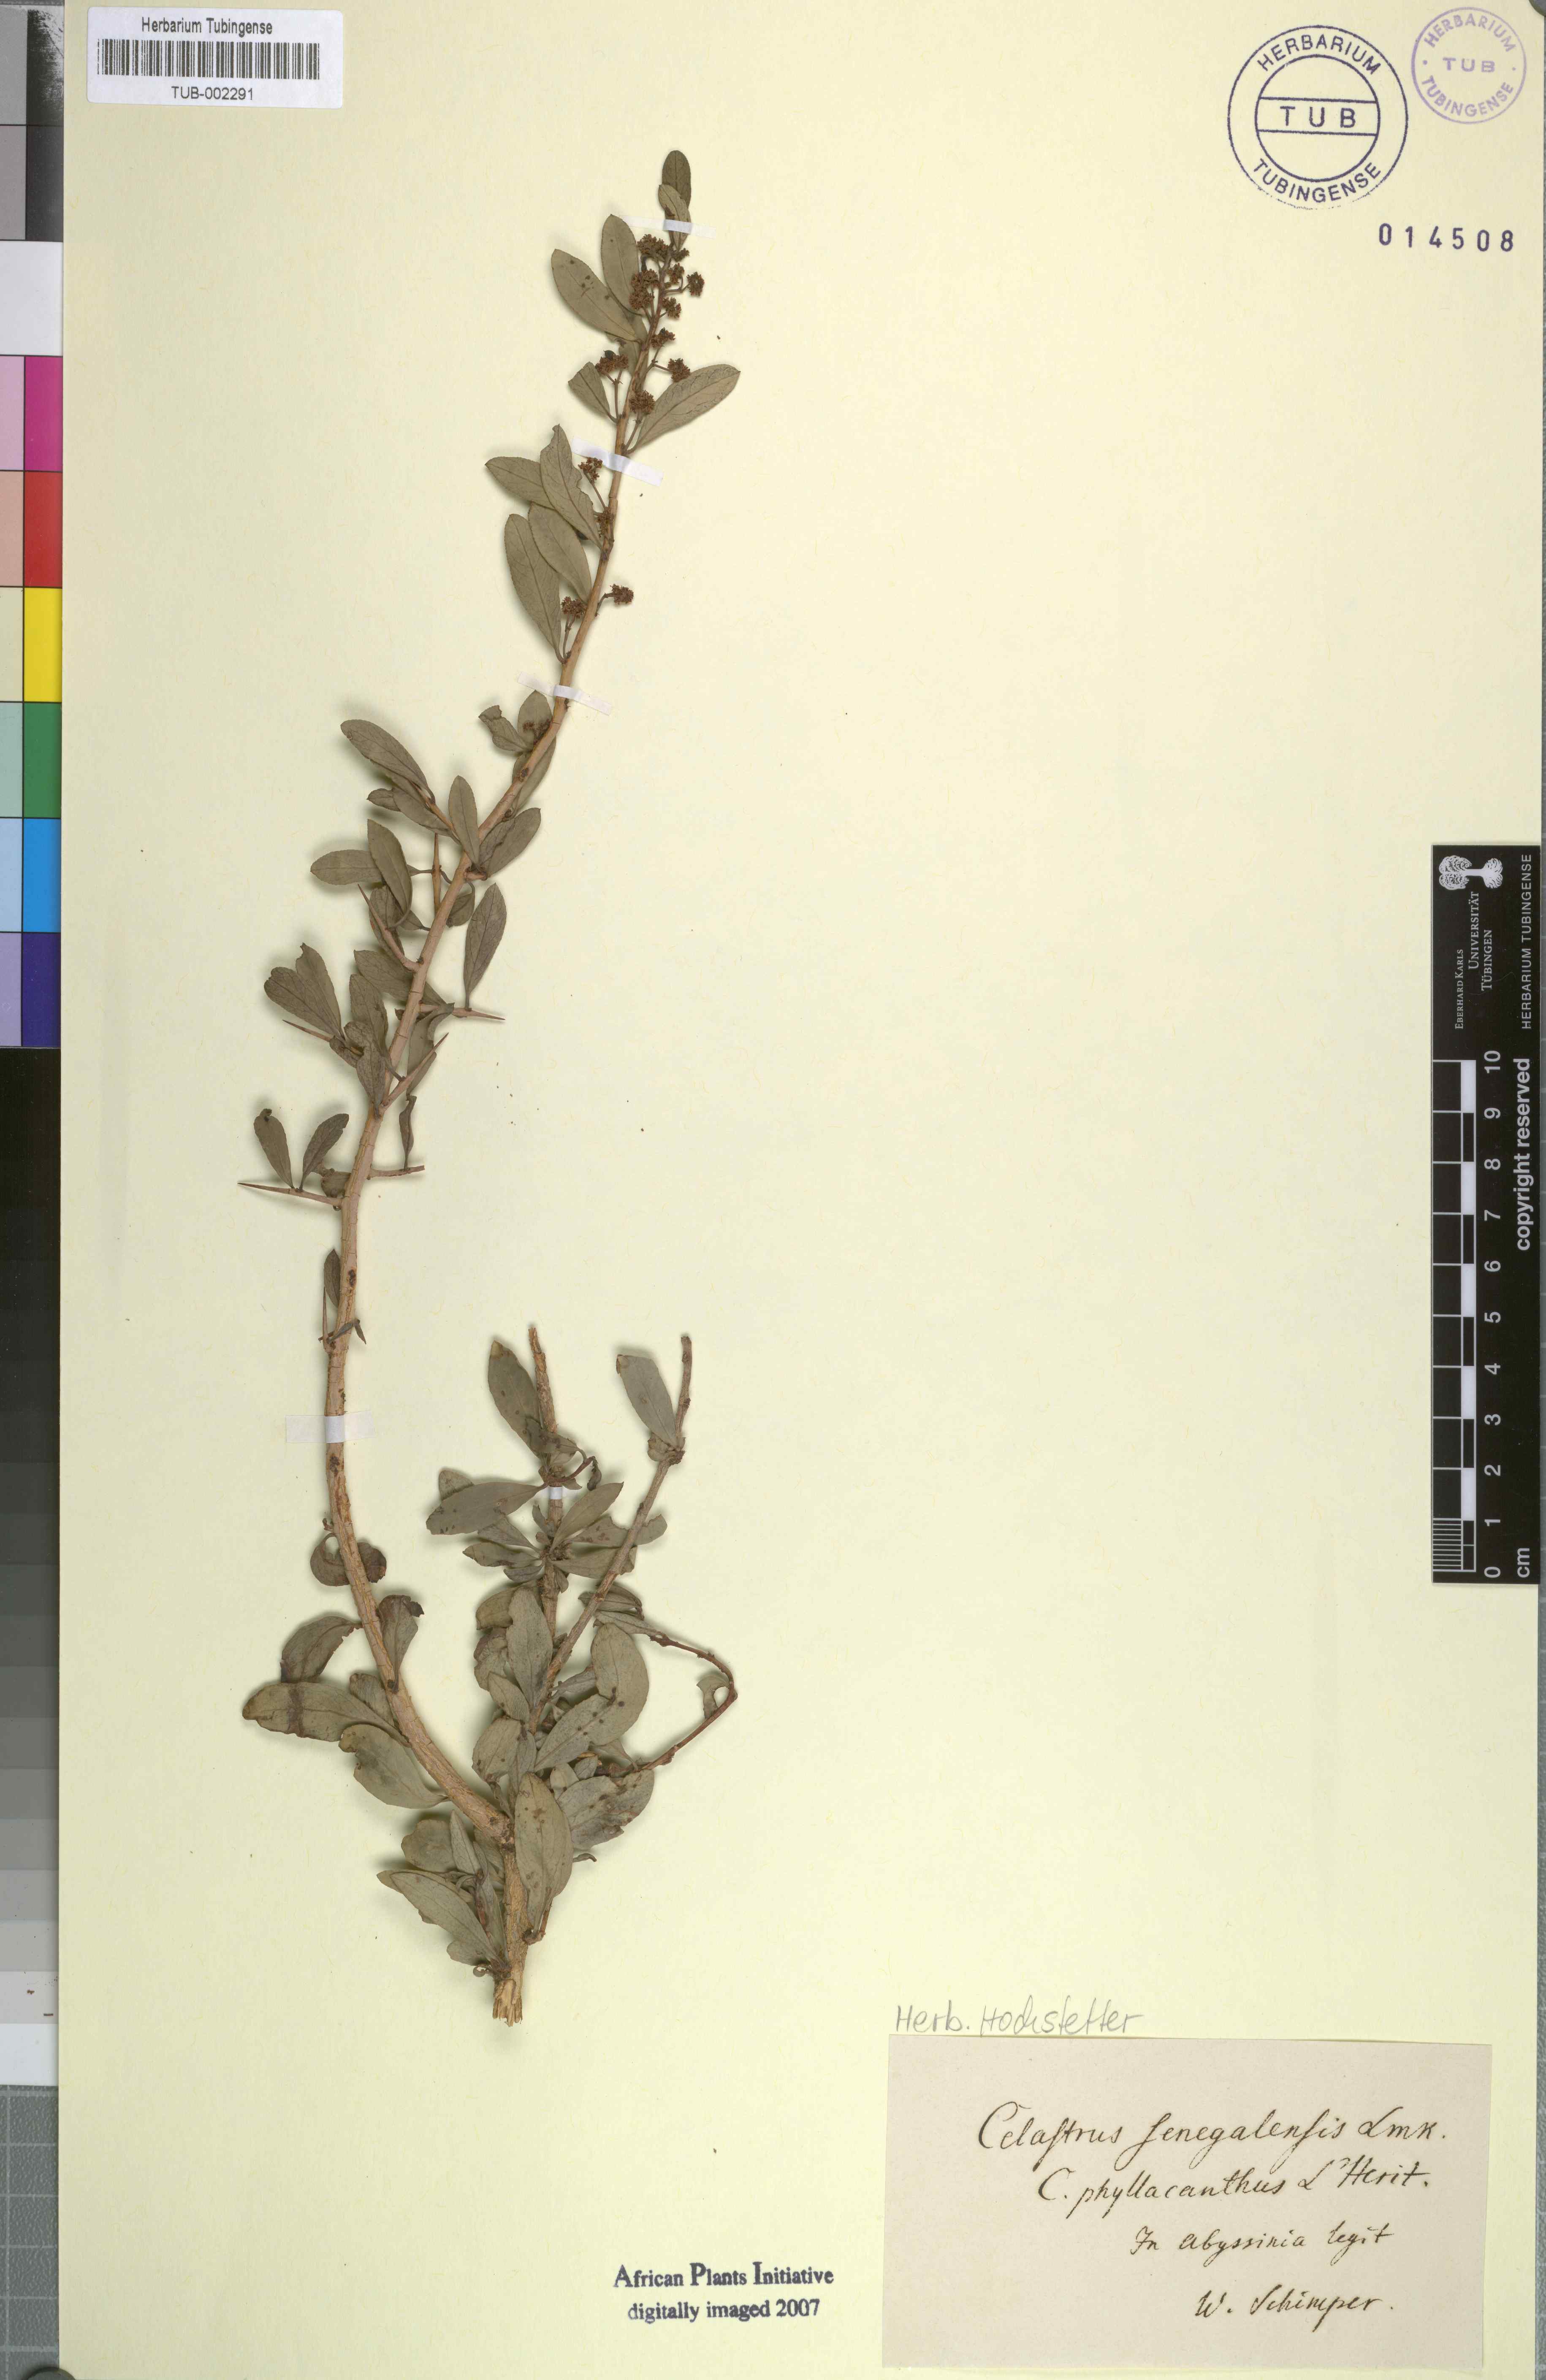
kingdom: Plantae
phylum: Tracheophyta
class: Magnoliopsida
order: Celastrales
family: Celastraceae
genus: Gymnosporia
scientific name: Gymnosporia senegalensis
